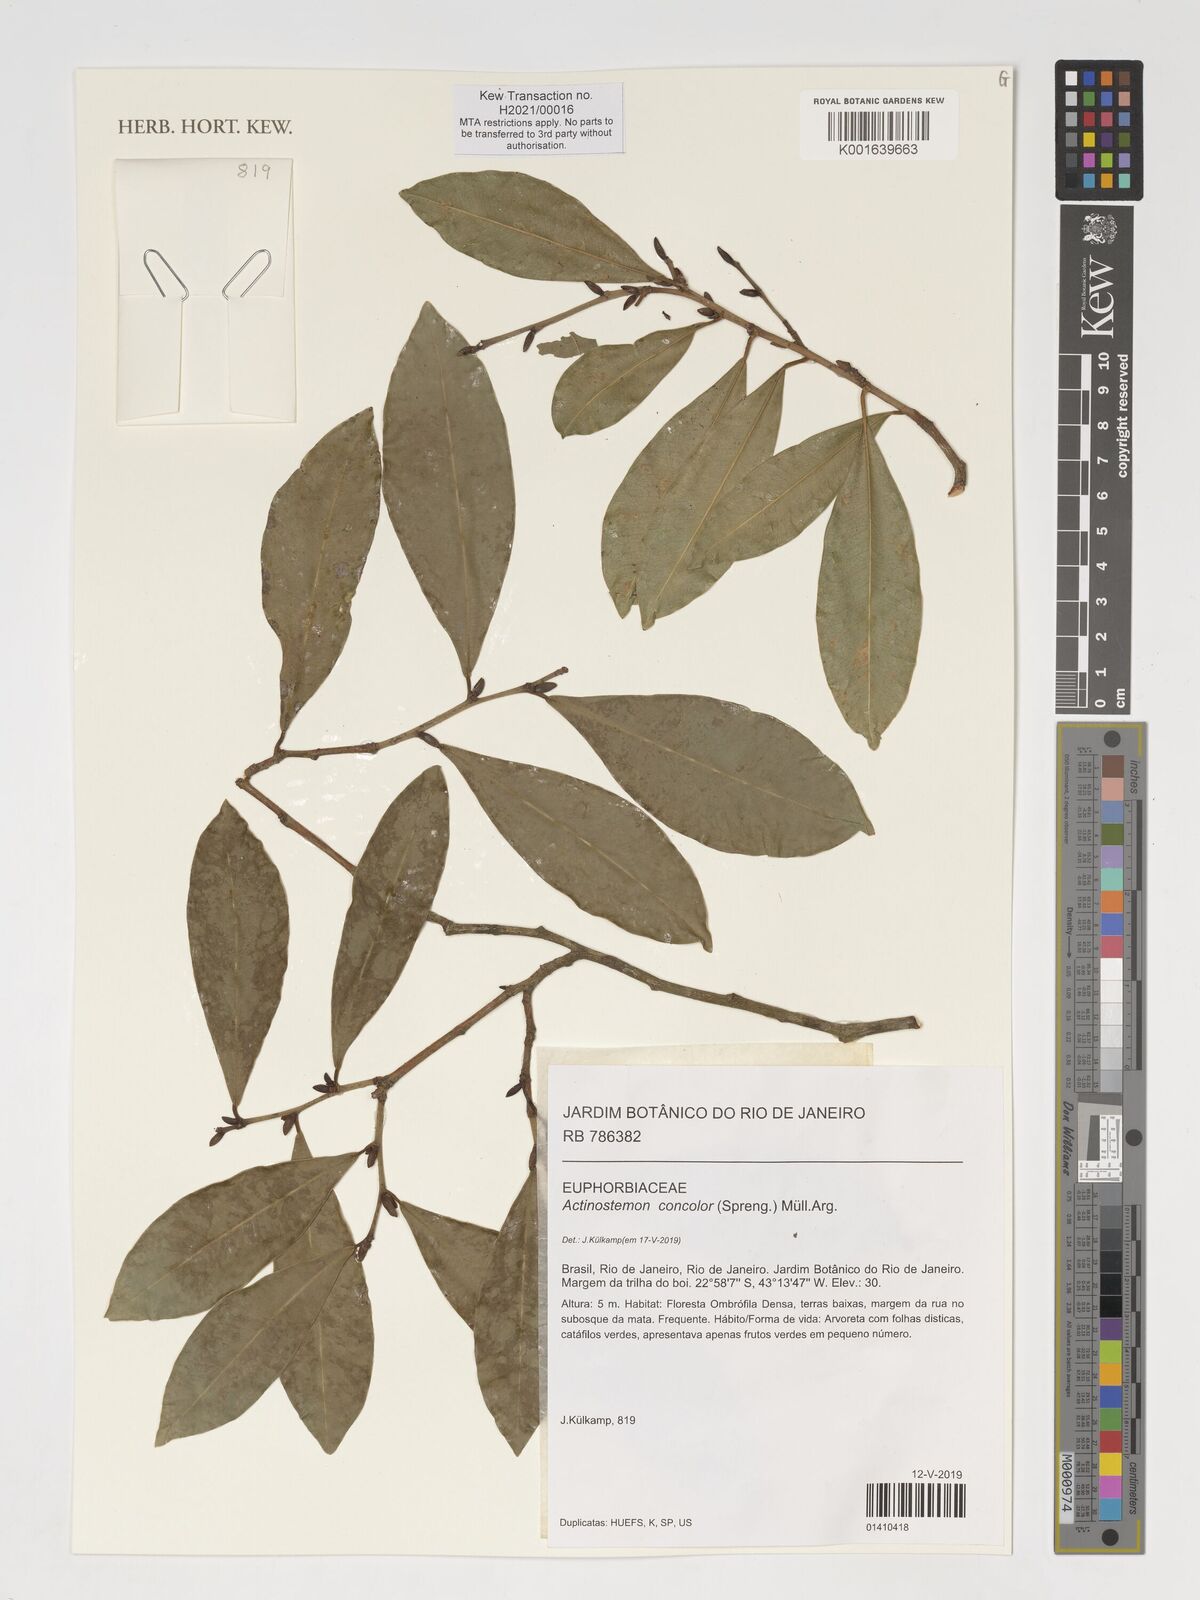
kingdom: Plantae
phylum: Tracheophyta
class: Magnoliopsida
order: Malpighiales
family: Euphorbiaceae
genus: Actinostemon
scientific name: Actinostemon concolor
